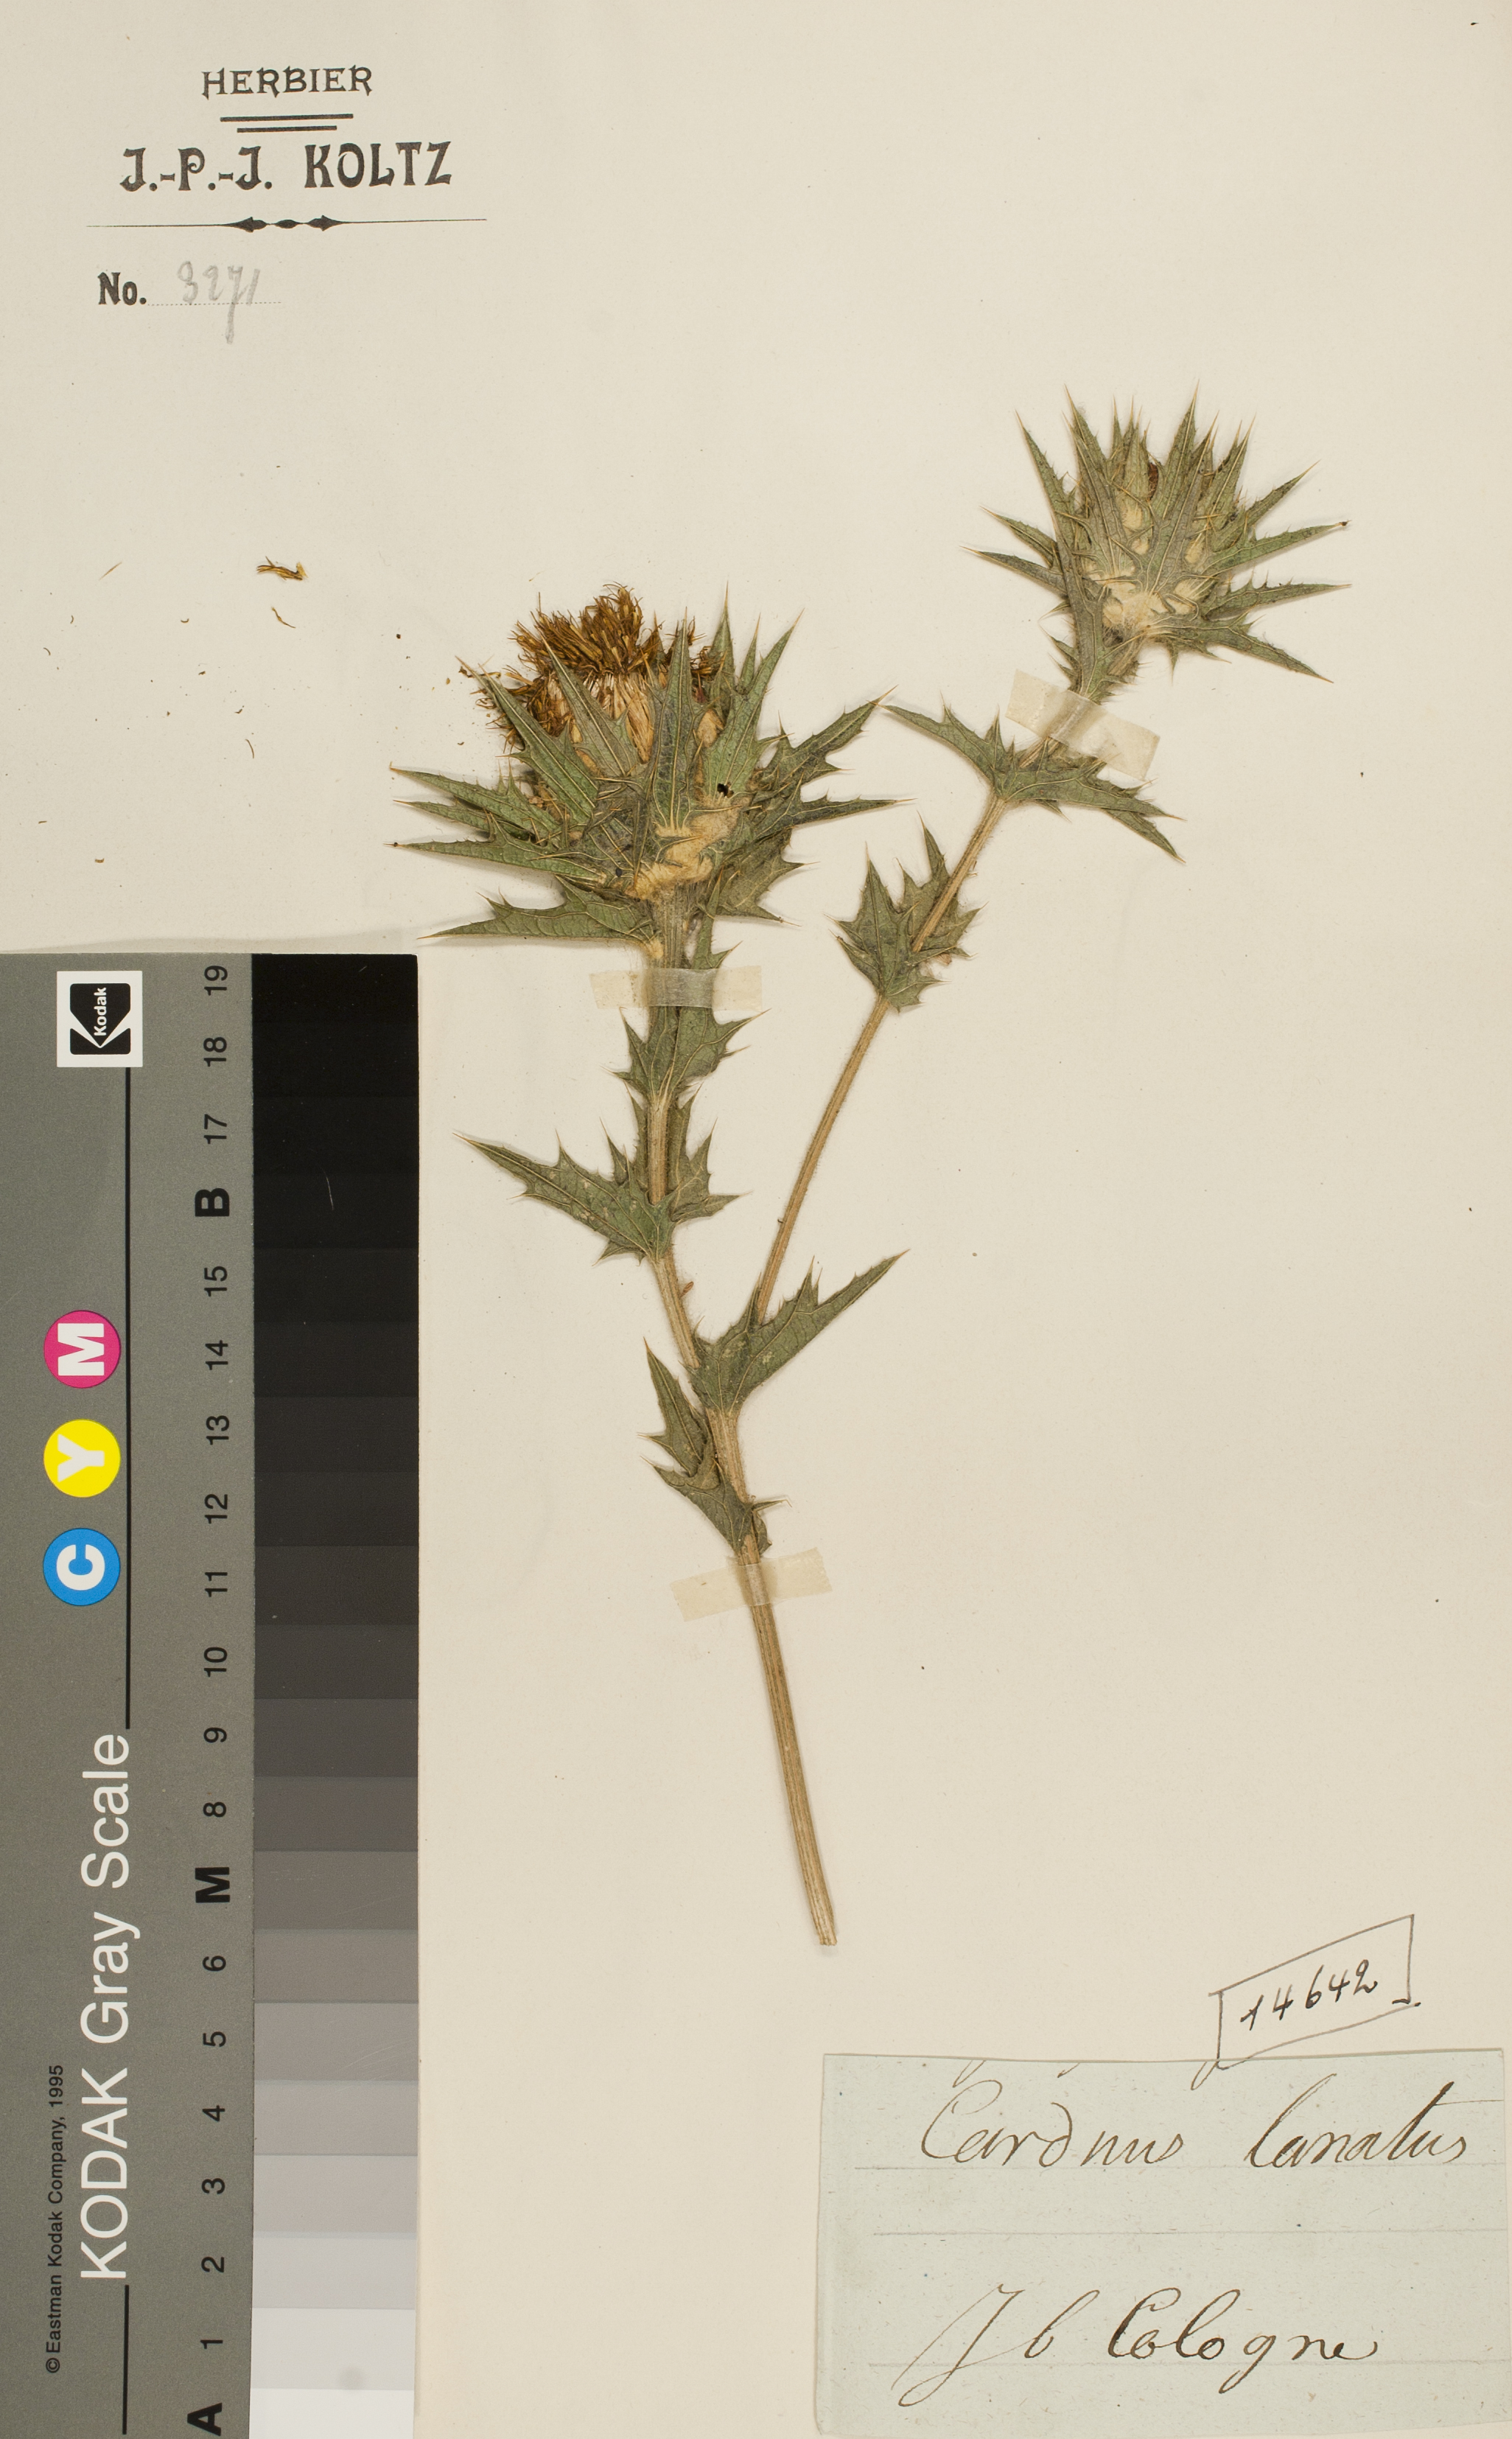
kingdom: Plantae
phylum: Tracheophyta
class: Magnoliopsida
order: Asterales
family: Asteraceae
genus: Carduus
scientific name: Carduus lanatus
